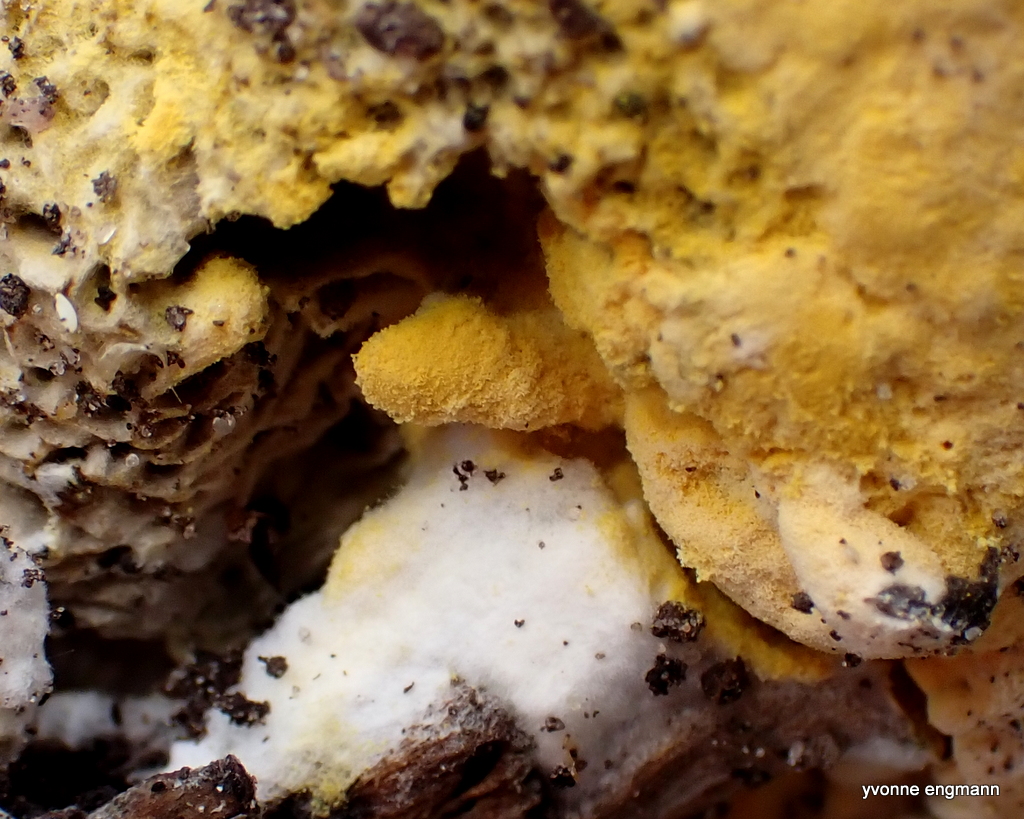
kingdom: Fungi
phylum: Ascomycota
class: Sordariomycetes
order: Hypocreales
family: Hypocreaceae
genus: Hypomyces
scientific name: Hypomyces chrysospermus
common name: gulskimmel-snylteskorpe
